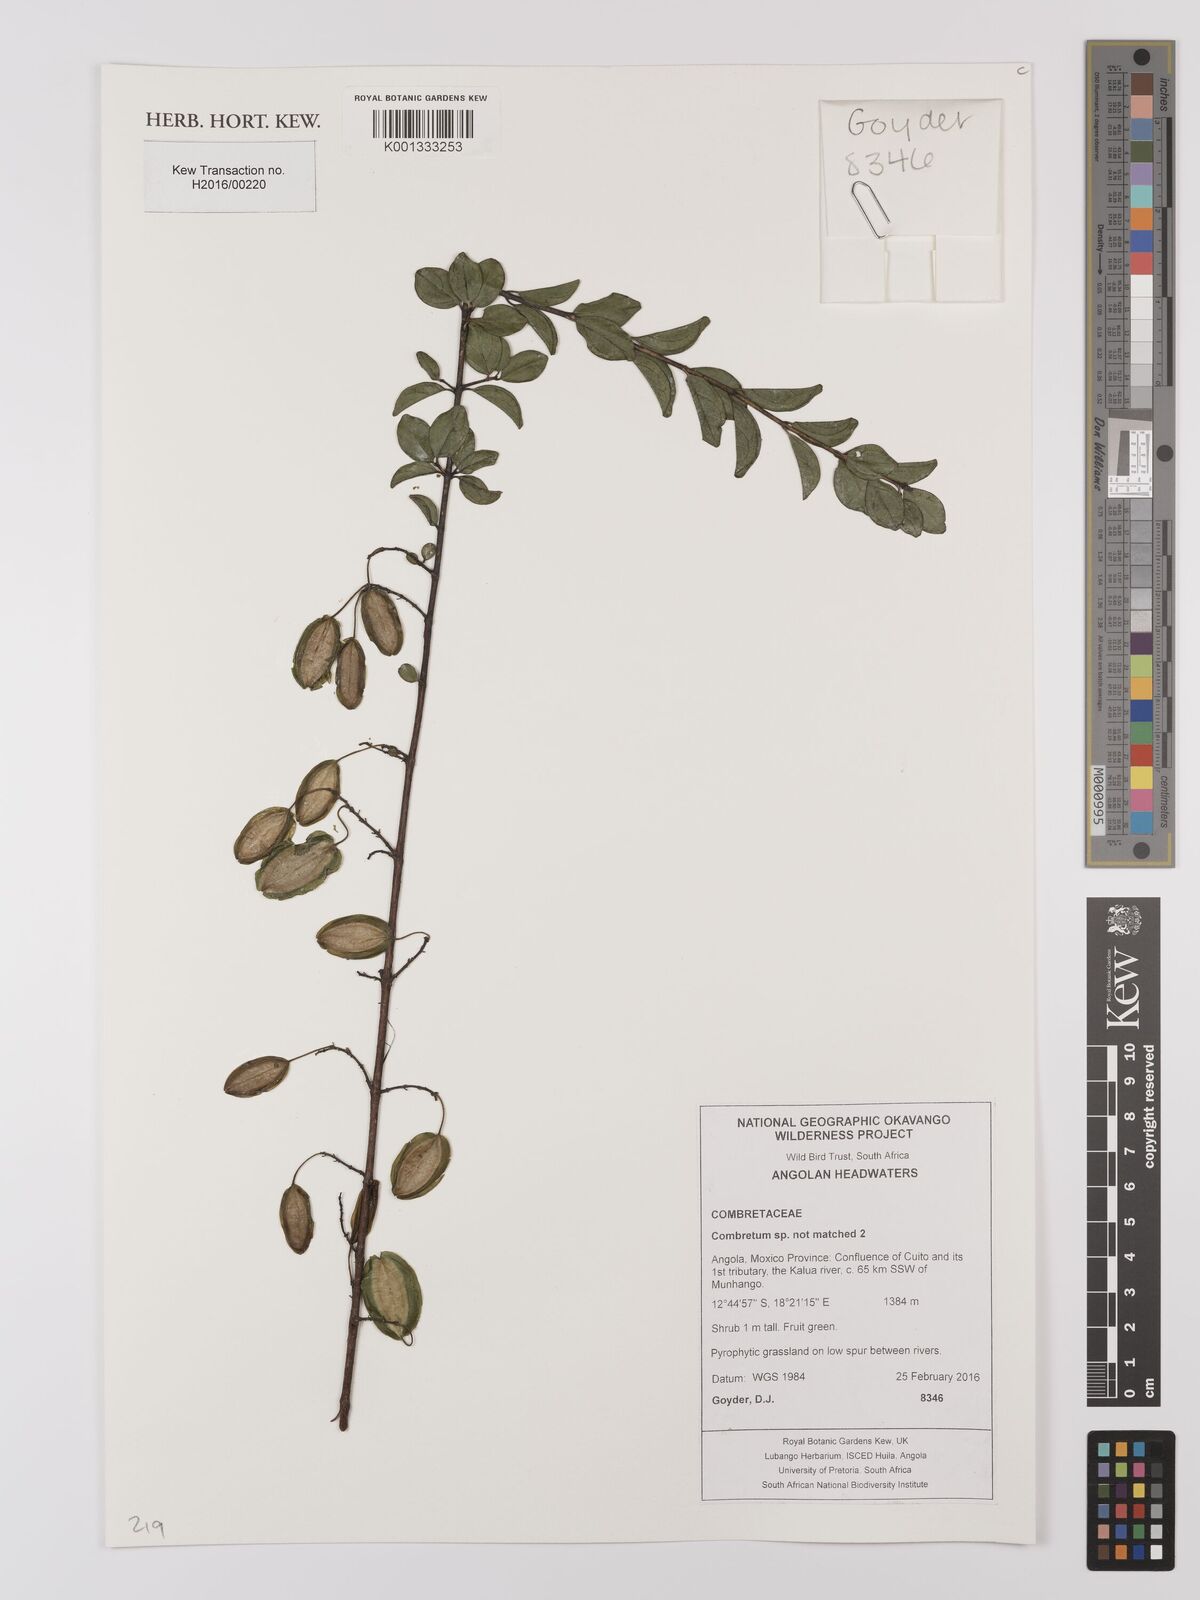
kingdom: Plantae
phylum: Tracheophyta
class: Magnoliopsida
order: Myrtales
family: Combretaceae
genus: Combretum
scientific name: Combretum
